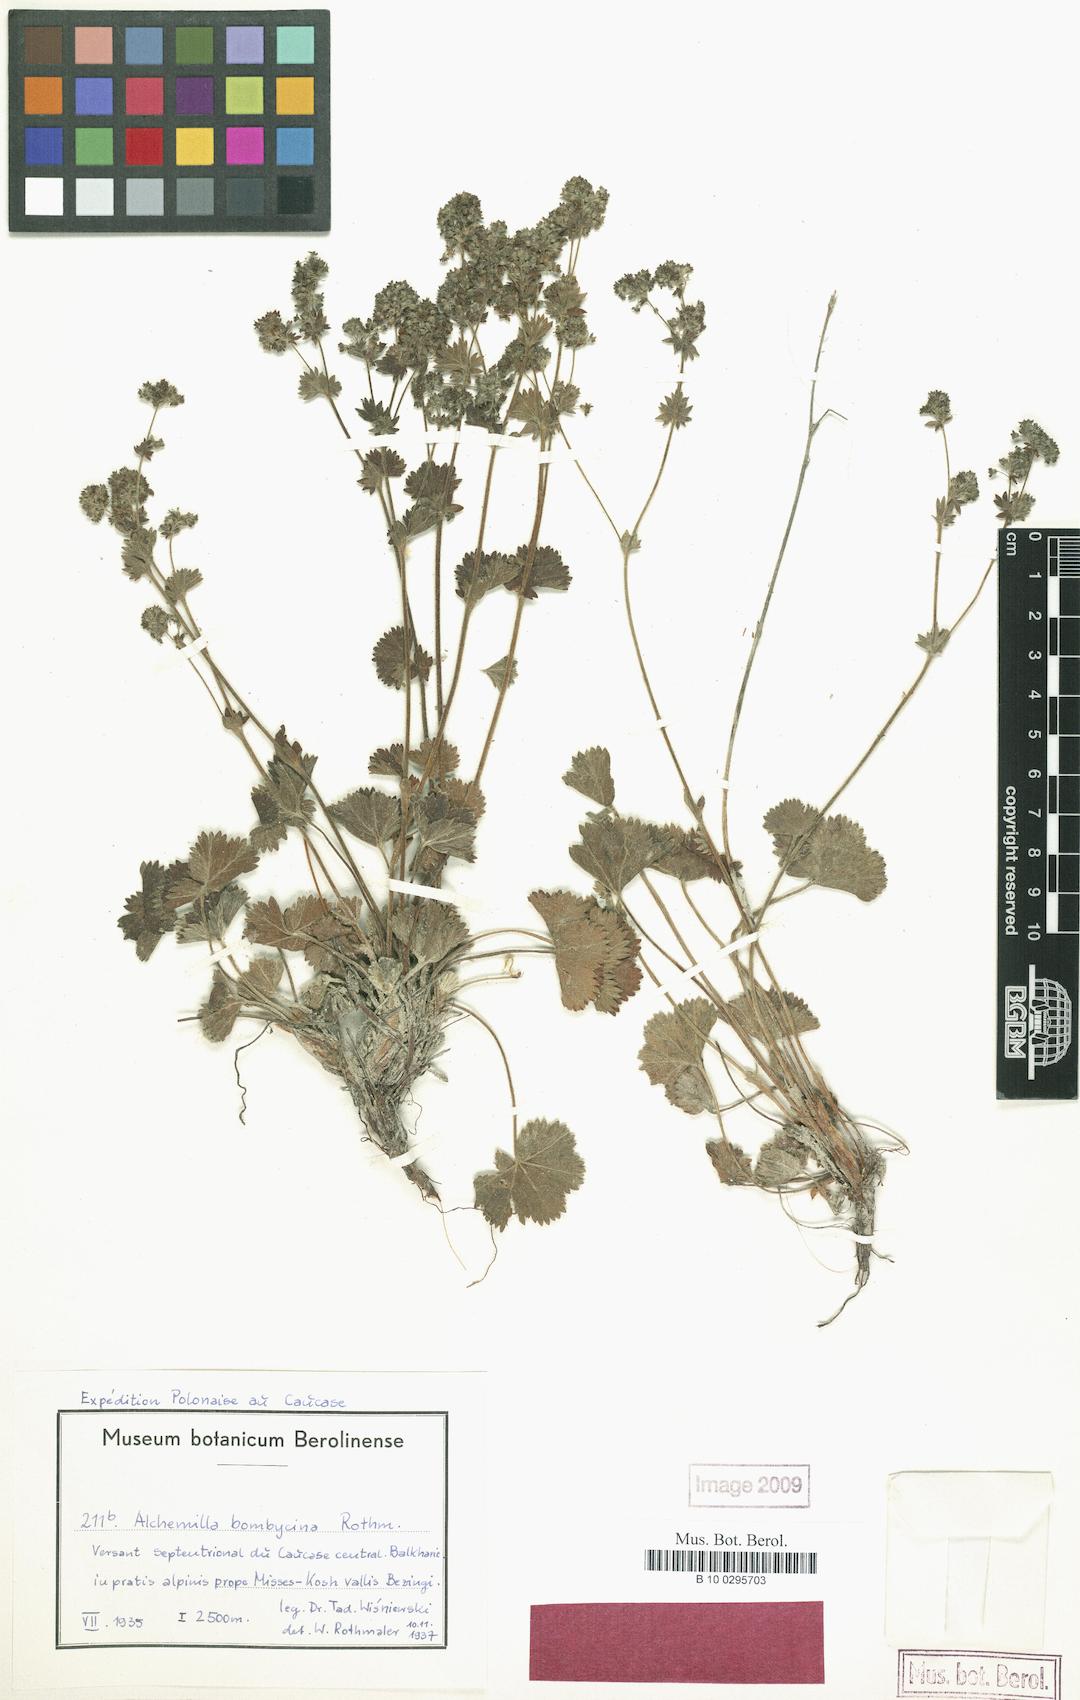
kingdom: Plantae
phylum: Tracheophyta
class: Magnoliopsida
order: Rosales
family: Rosaceae
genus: Alchemilla
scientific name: Alchemilla bombycina
